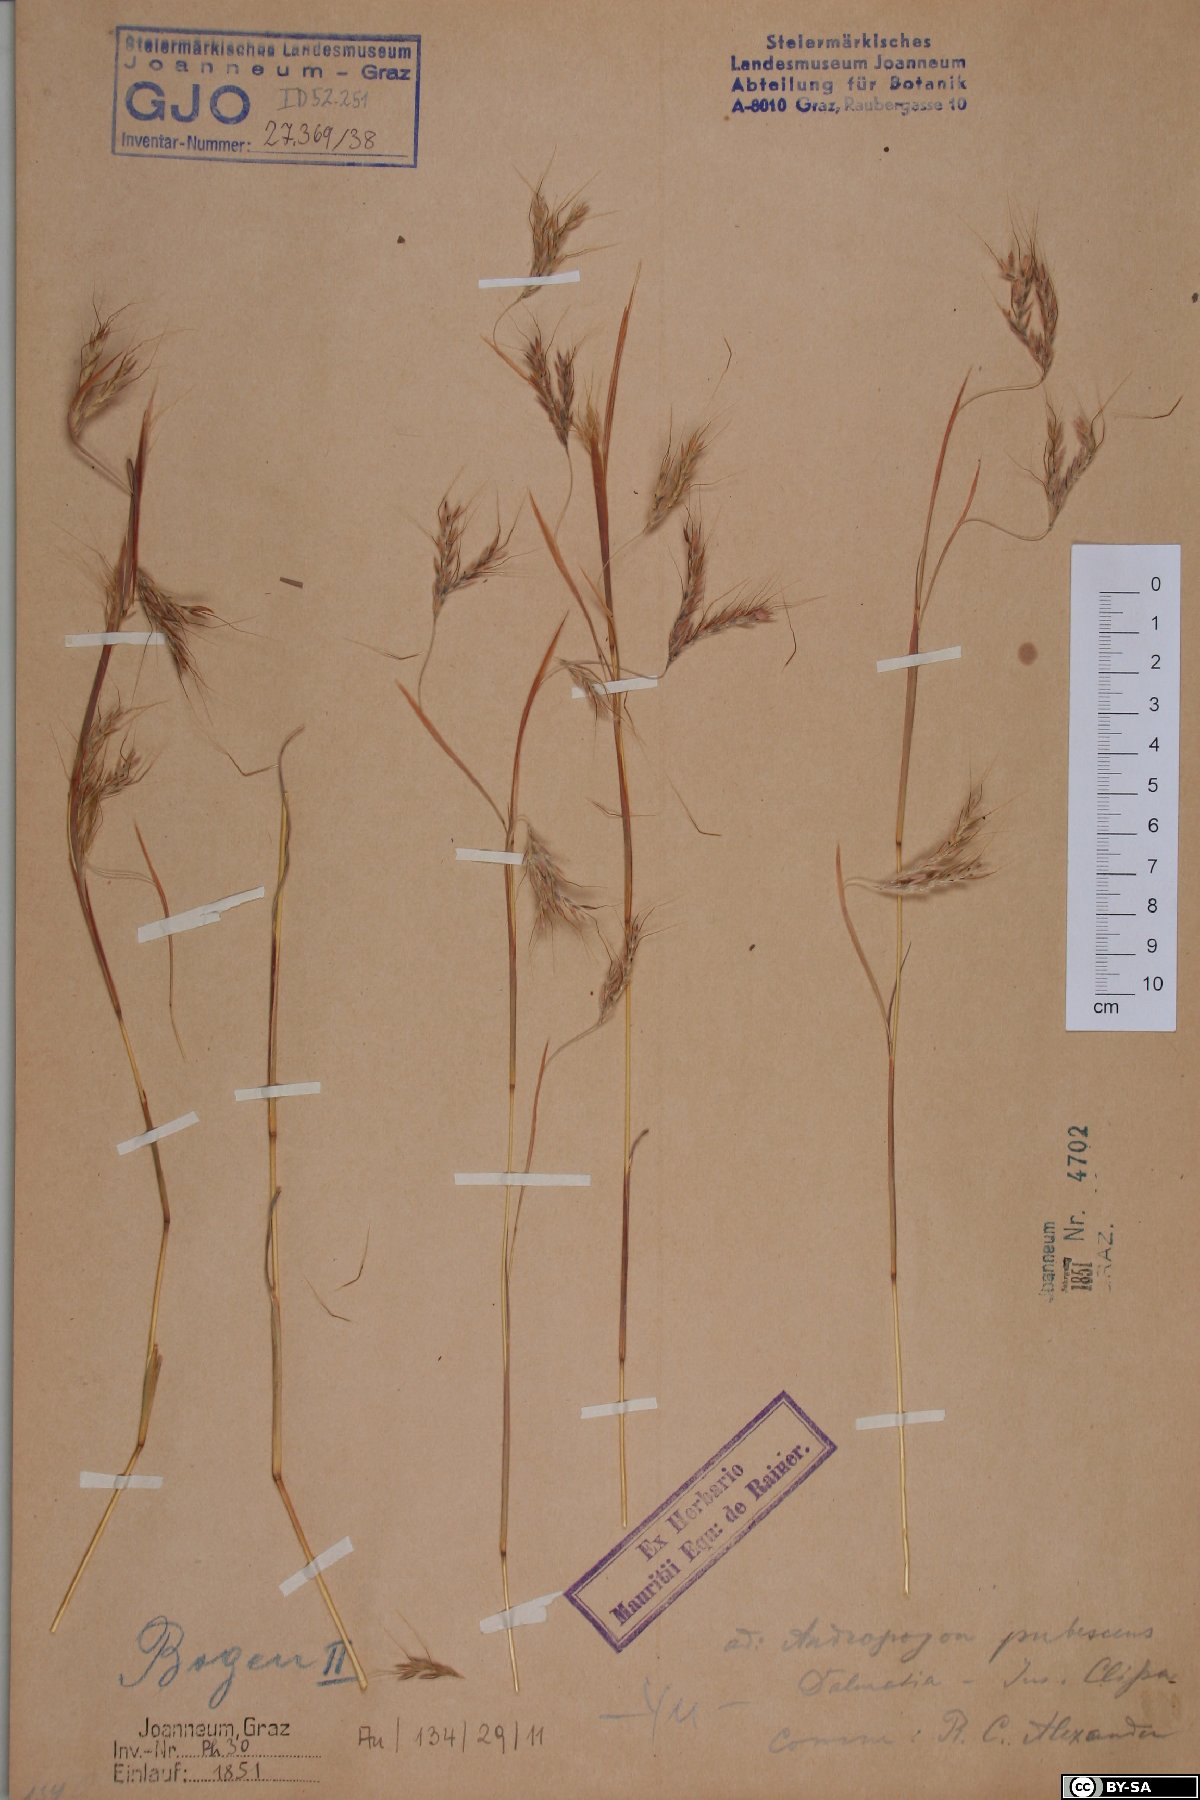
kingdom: Plantae
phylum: Tracheophyta
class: Liliopsida
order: Poales
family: Poaceae
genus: Hyparrhenia
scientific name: Hyparrhenia hirta
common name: Thatching grass
